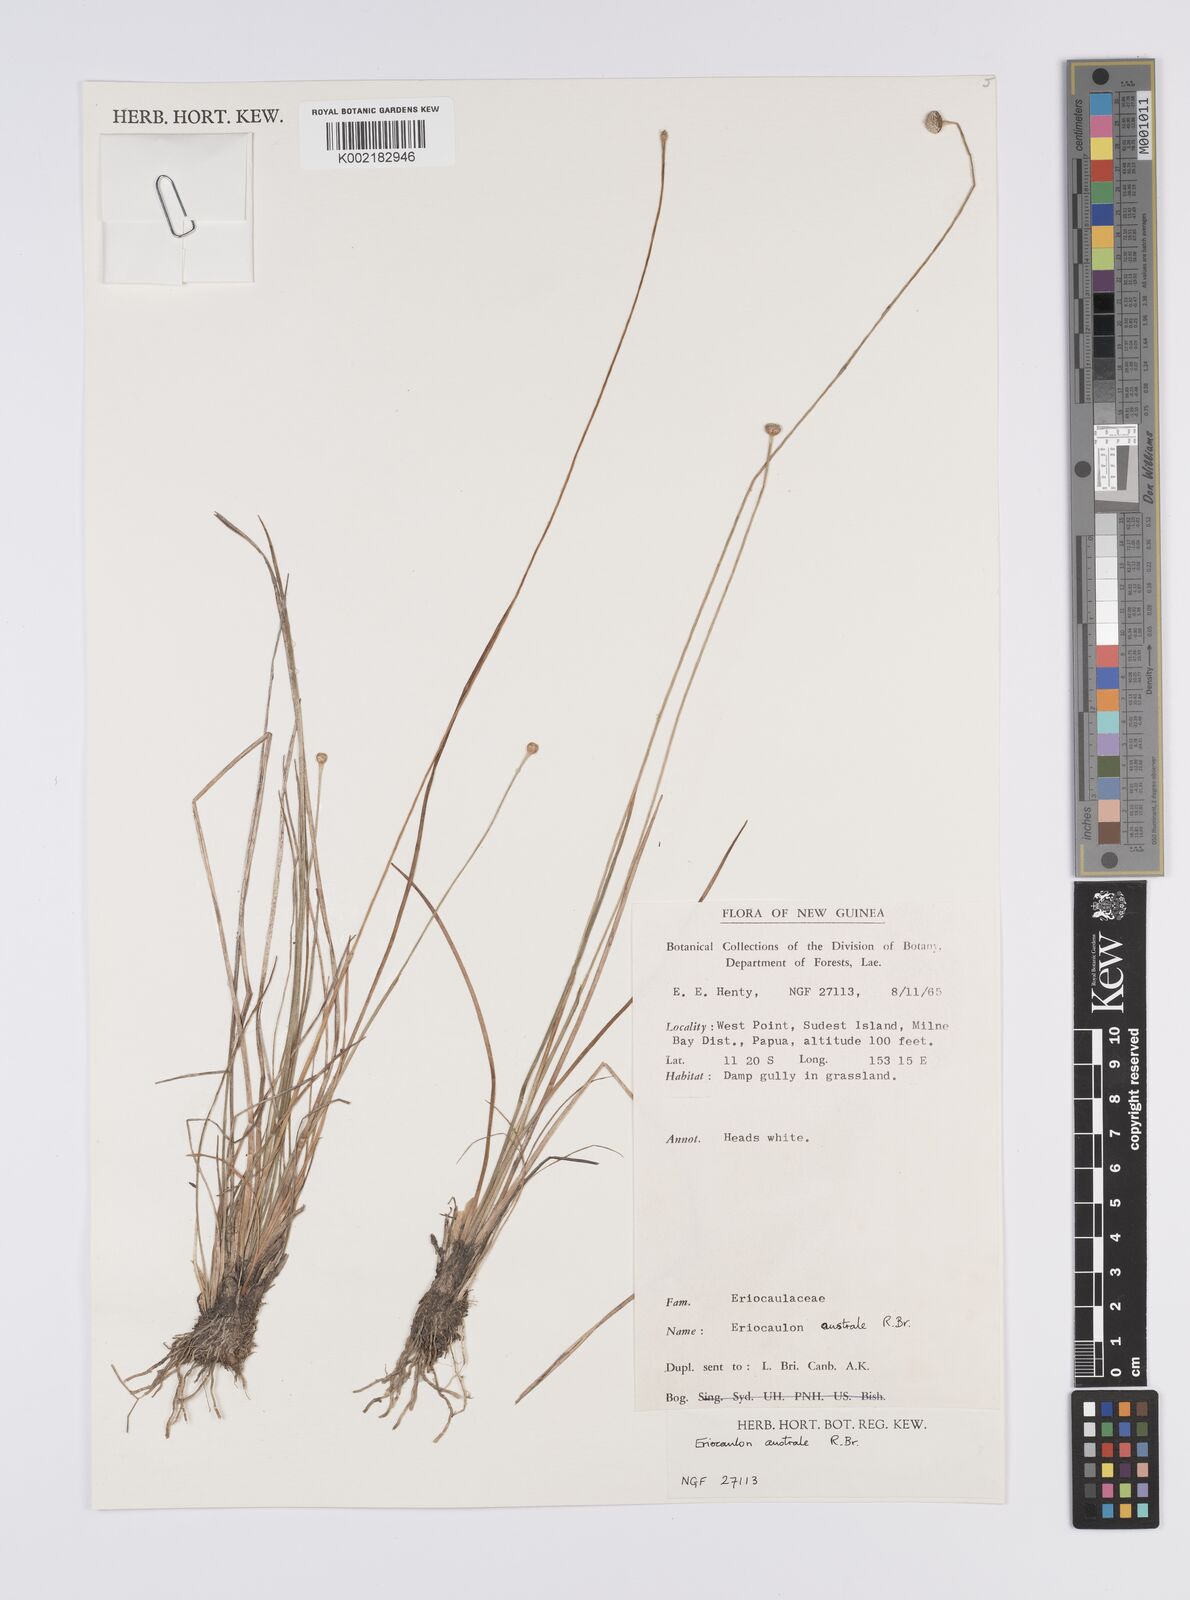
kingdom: Plantae
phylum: Tracheophyta
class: Liliopsida
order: Poales
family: Eriocaulaceae
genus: Eriocaulon
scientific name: Eriocaulon australe
